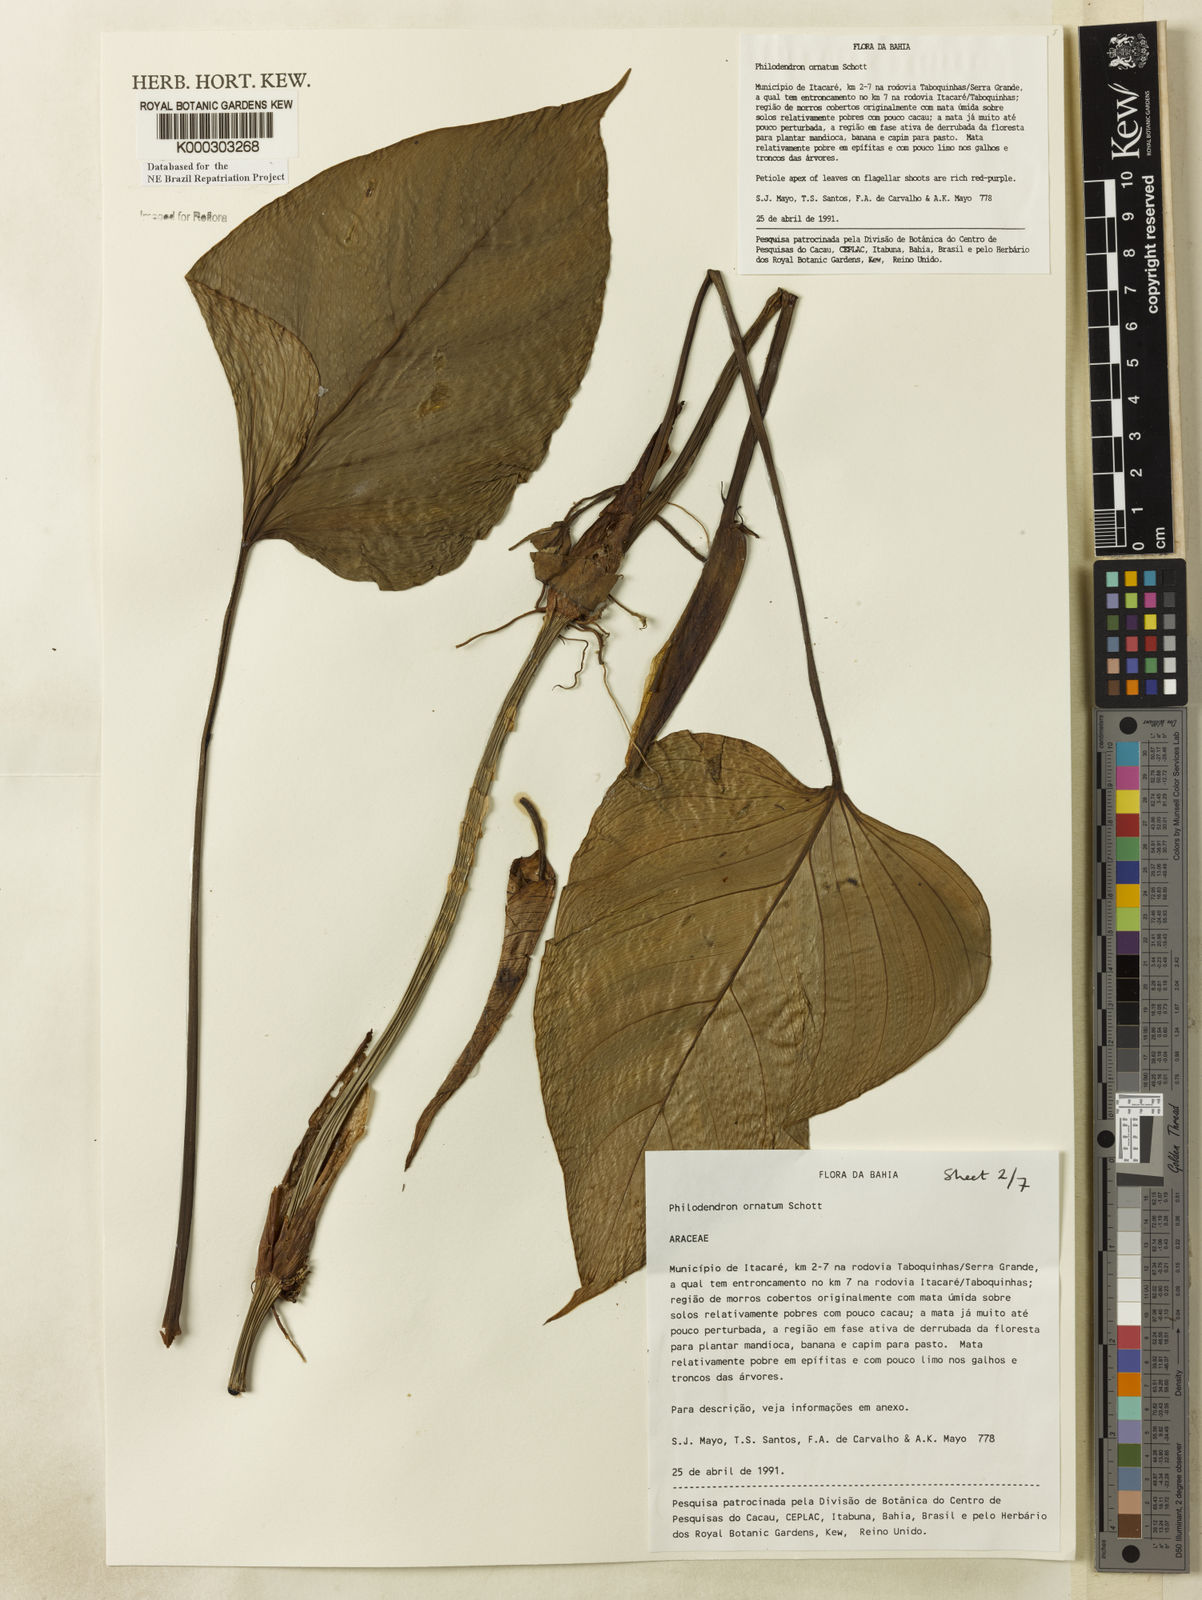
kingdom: Plantae
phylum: Tracheophyta
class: Liliopsida
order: Alismatales
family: Araceae
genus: Philodendron
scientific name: Philodendron ornatum
